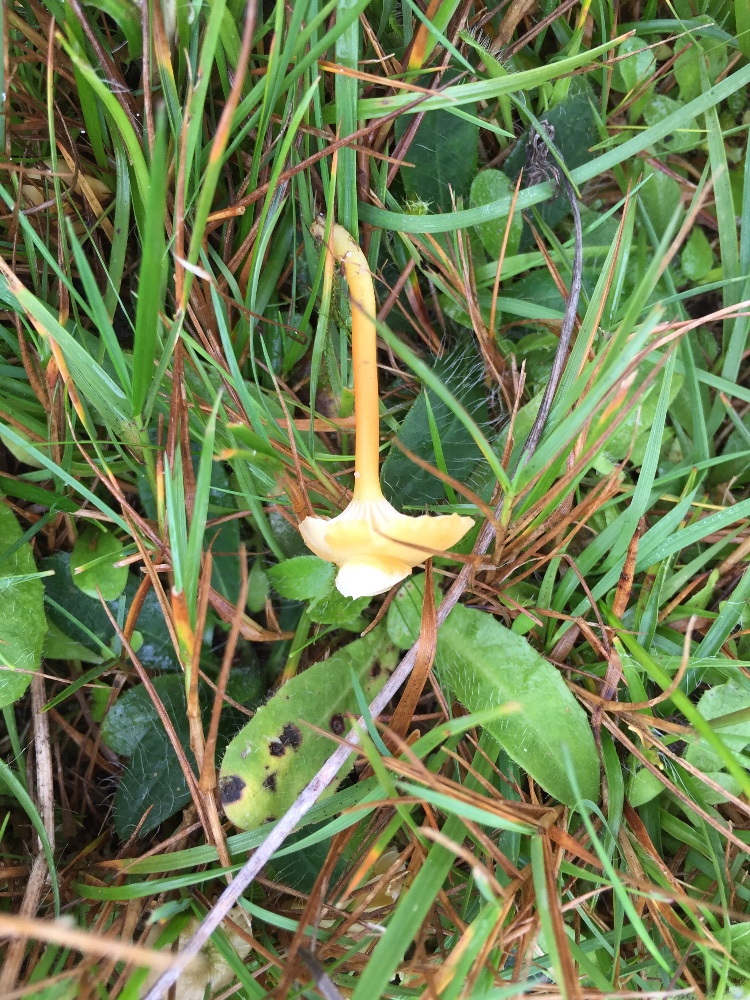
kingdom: Fungi
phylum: Basidiomycota
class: Agaricomycetes
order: Agaricales
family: Hygrophoraceae
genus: Hygrocybe
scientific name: Hygrocybe cantharellus
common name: kantarel-vokshat
